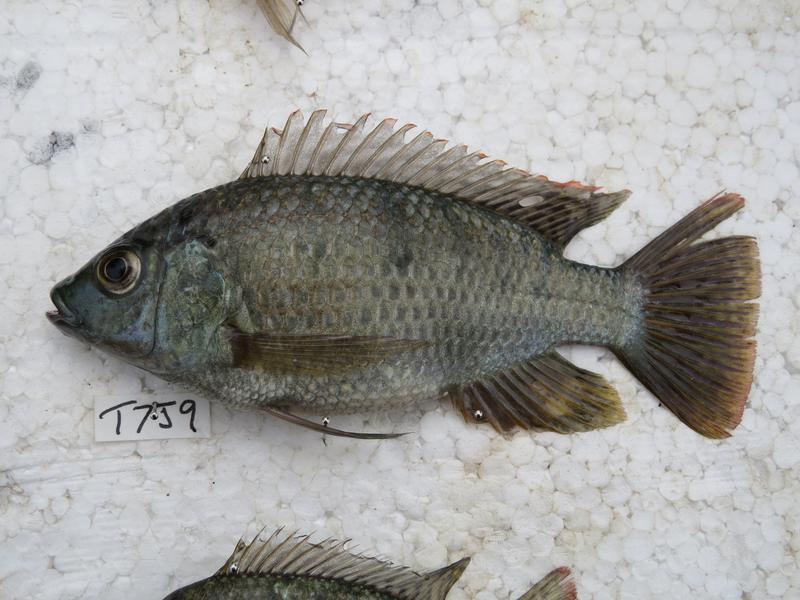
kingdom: Animalia
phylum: Chordata
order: Perciformes
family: Cichlidae
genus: Oreochromis
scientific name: Oreochromis shiranus
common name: Chilwa tilapia
